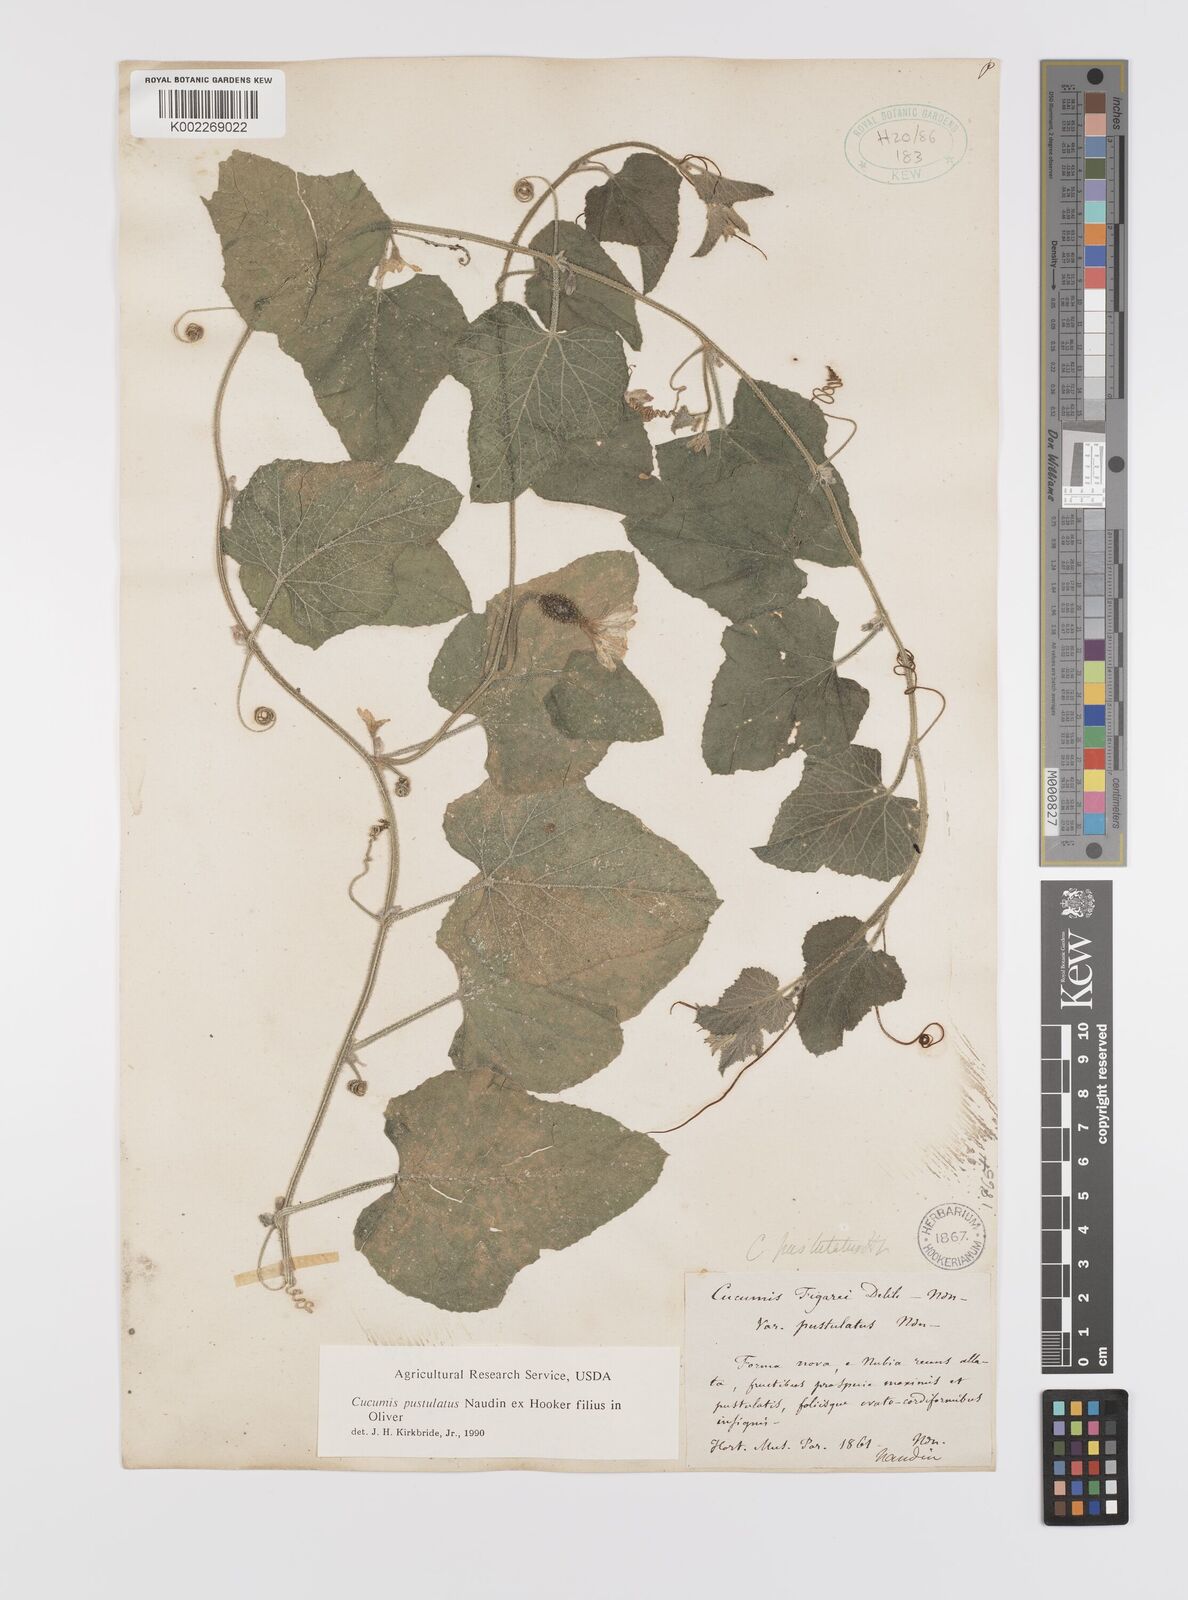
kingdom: Plantae
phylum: Tracheophyta
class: Magnoliopsida
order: Cucurbitales
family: Cucurbitaceae
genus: Cucumis
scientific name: Cucumis pustulatus
